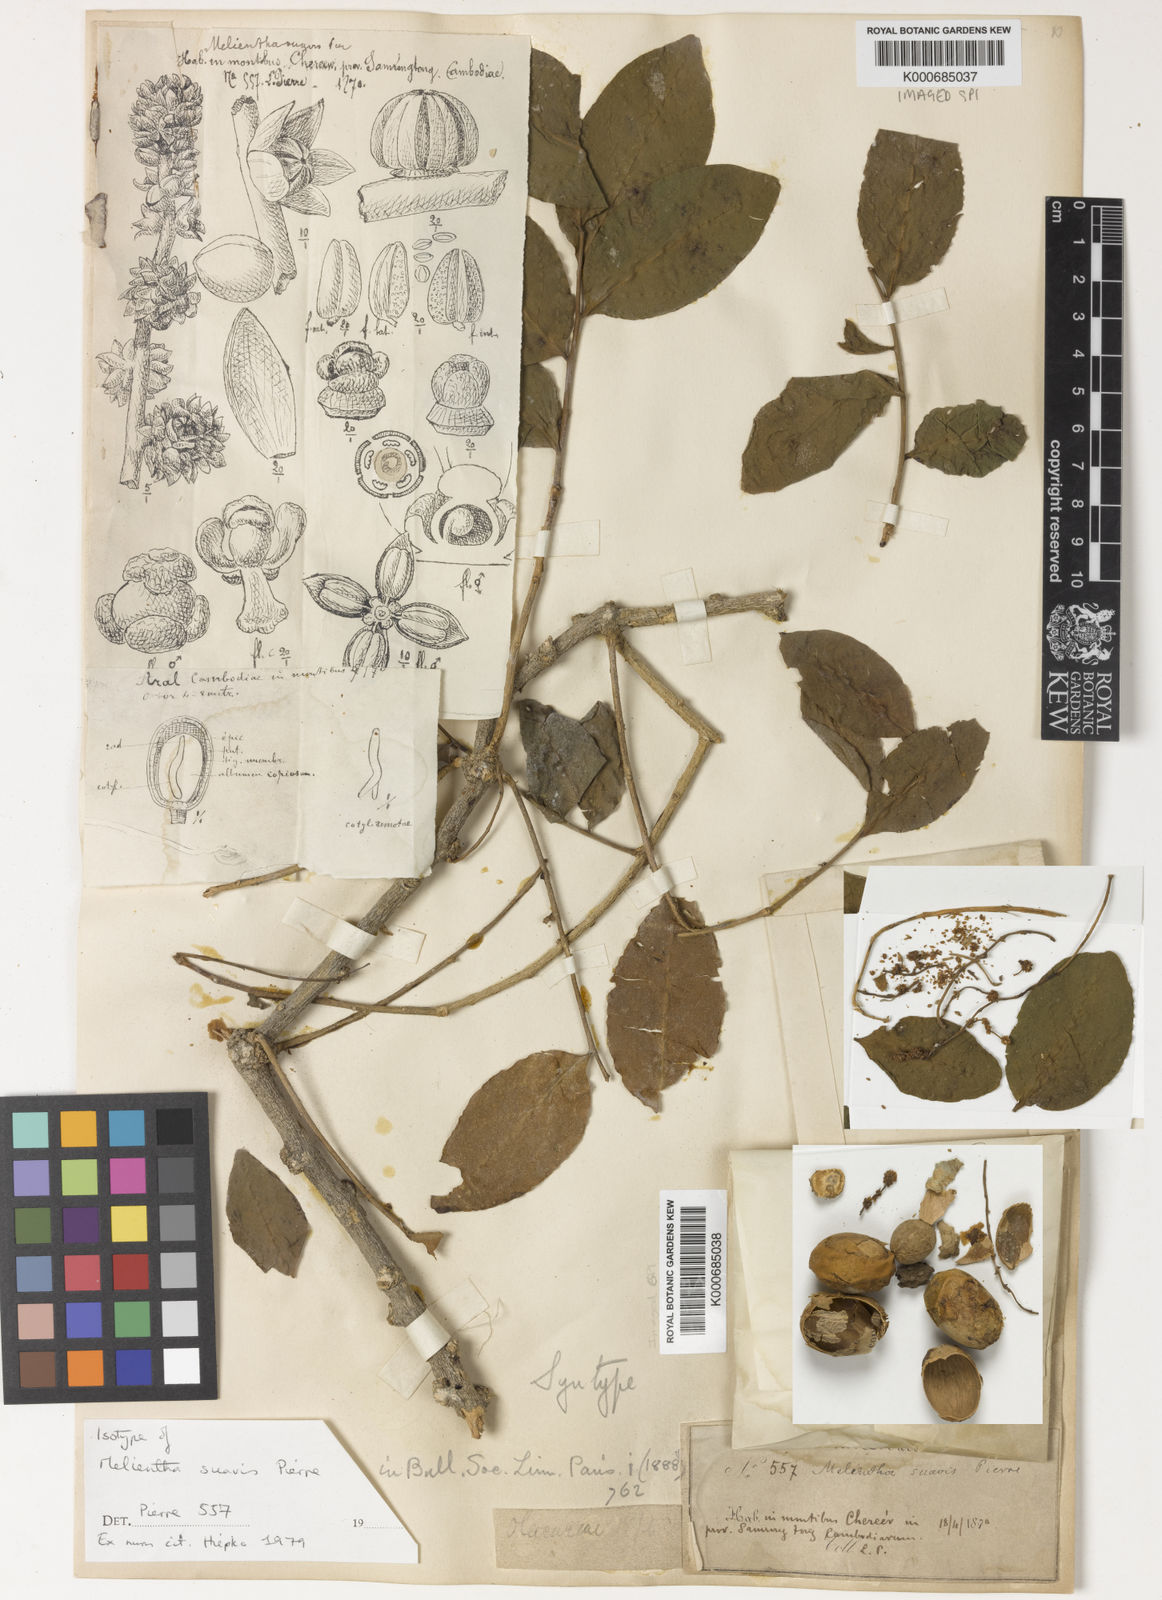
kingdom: Plantae
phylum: Tracheophyta
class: Magnoliopsida
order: Santalales
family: Opiliaceae
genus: Melientha
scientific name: Melientha suavis
